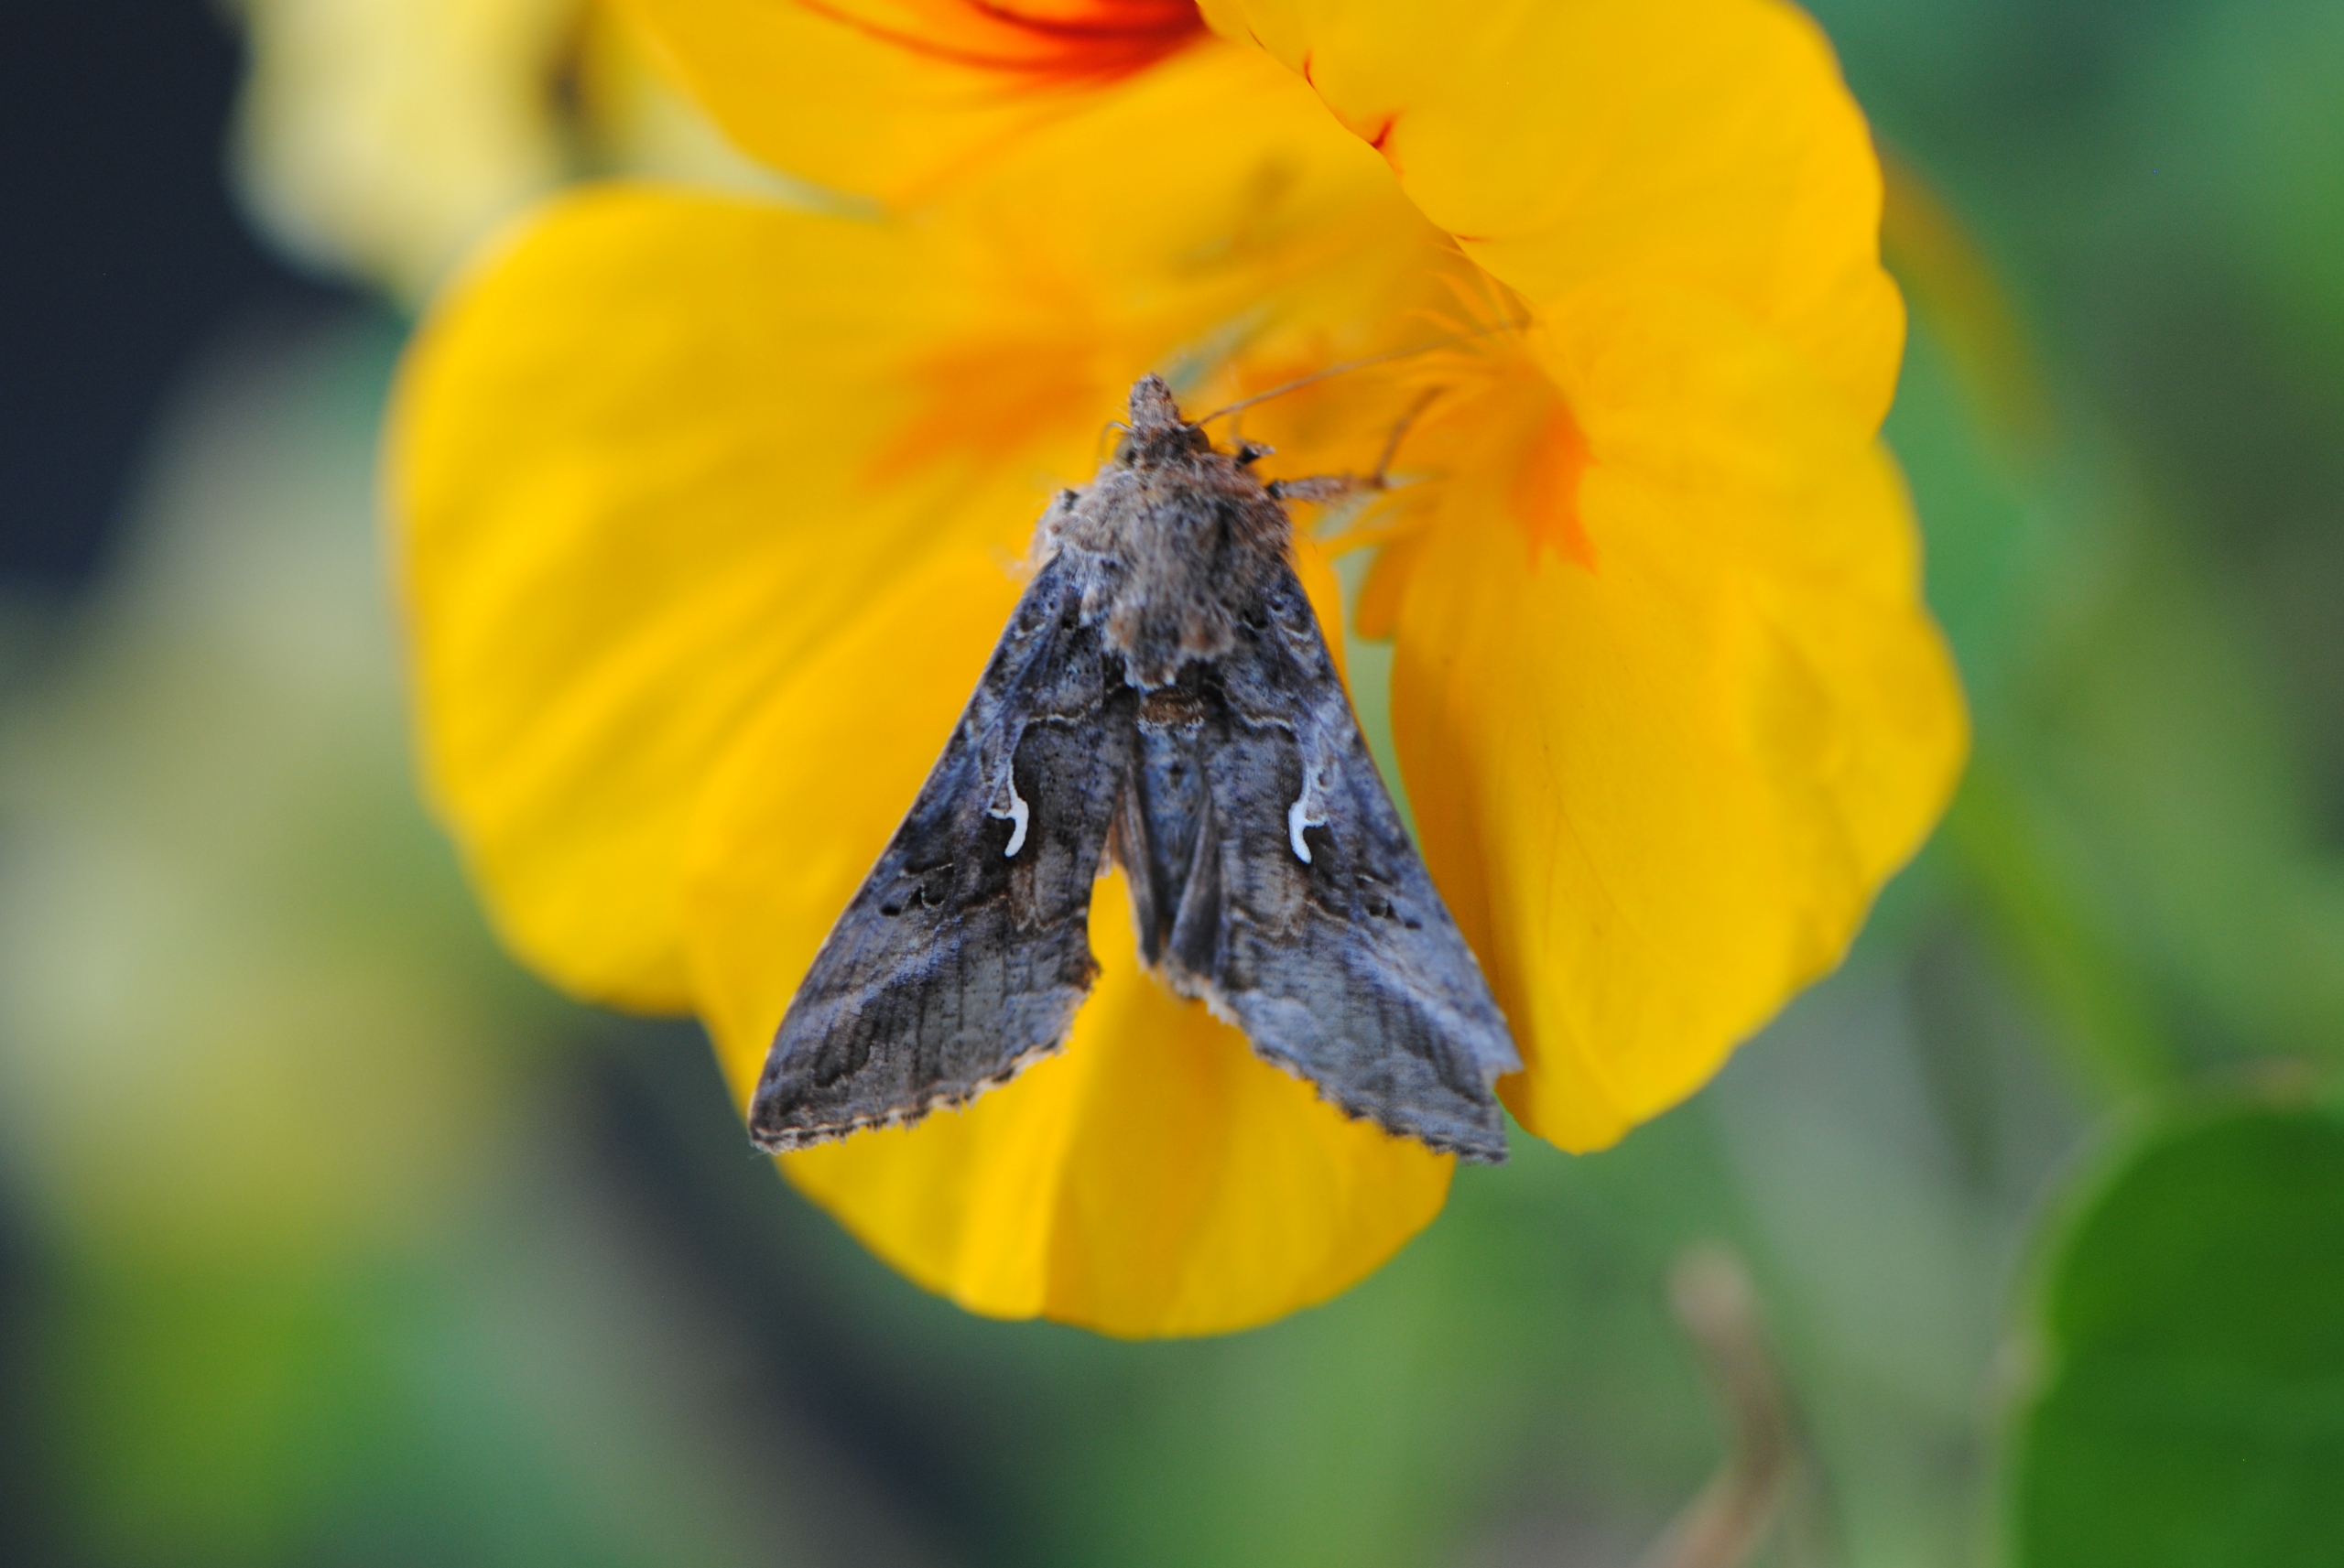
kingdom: Animalia
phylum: Arthropoda
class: Insecta
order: Lepidoptera
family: Noctuidae
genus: Autographa
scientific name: Autographa gamma
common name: Gammaugle
